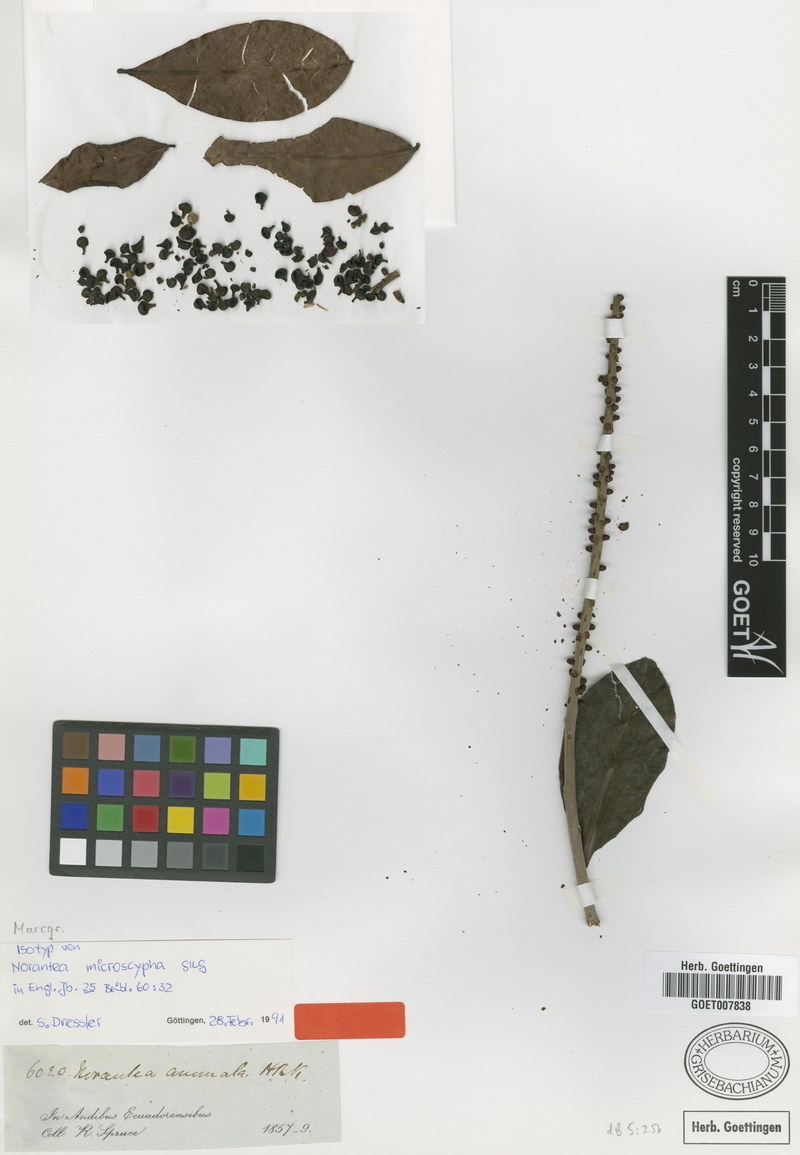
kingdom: Plantae
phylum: Tracheophyta
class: Magnoliopsida
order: Ericales
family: Marcgraviaceae
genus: Sarcopera
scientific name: Sarcopera anomala
